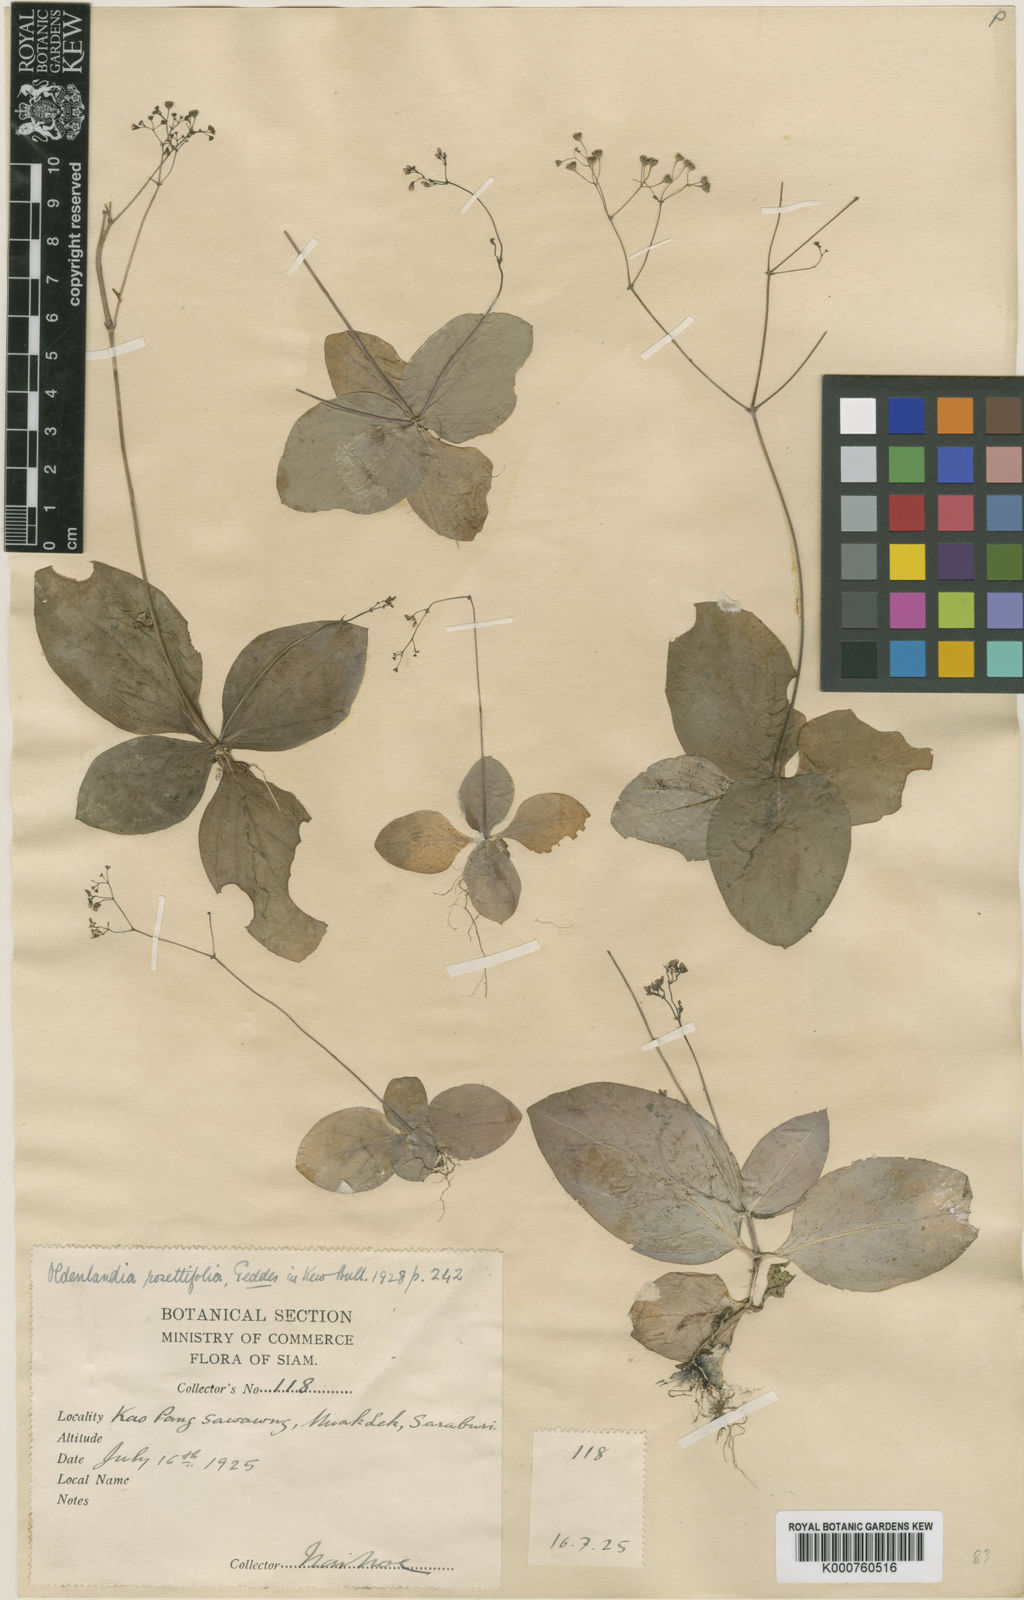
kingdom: Plantae
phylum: Tracheophyta
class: Magnoliopsida
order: Gentianales
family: Rubiaceae
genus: Debia
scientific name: Debia rosettifolia
